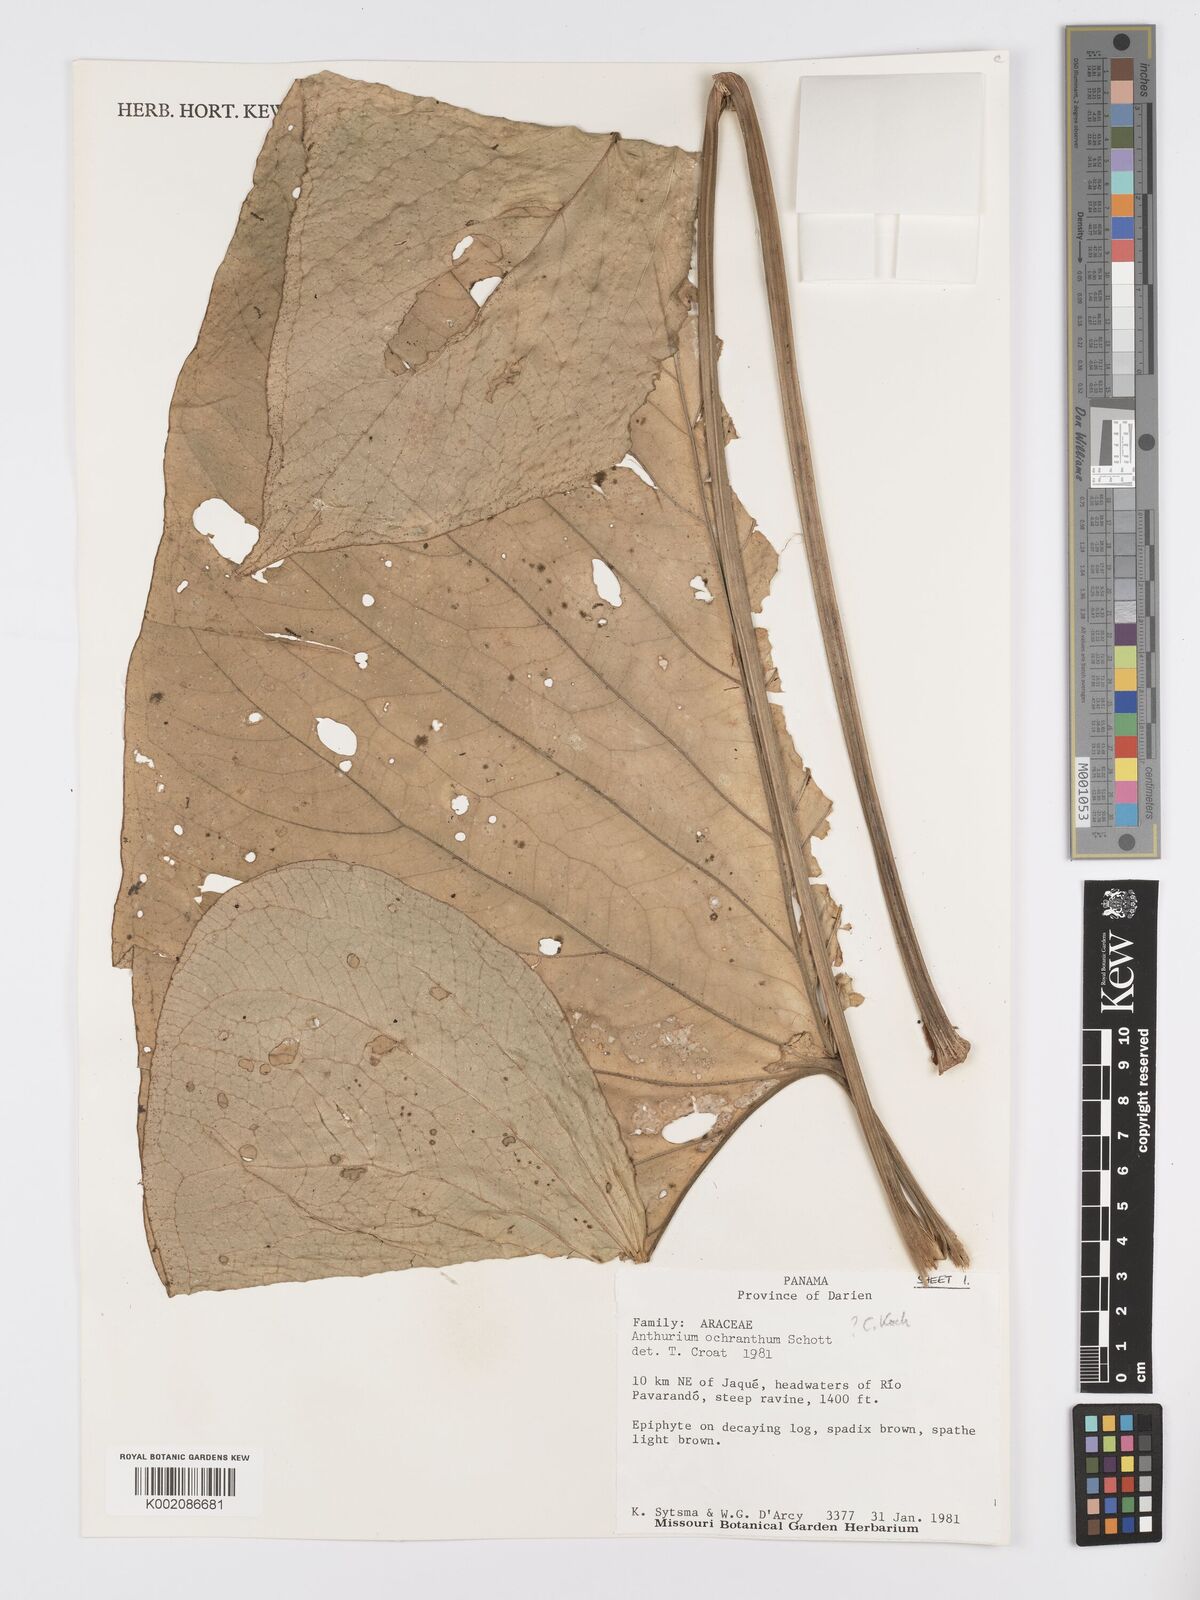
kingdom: Plantae
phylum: Tracheophyta
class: Liliopsida
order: Alismatales
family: Araceae
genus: Anthurium
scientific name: Anthurium ochranthum
